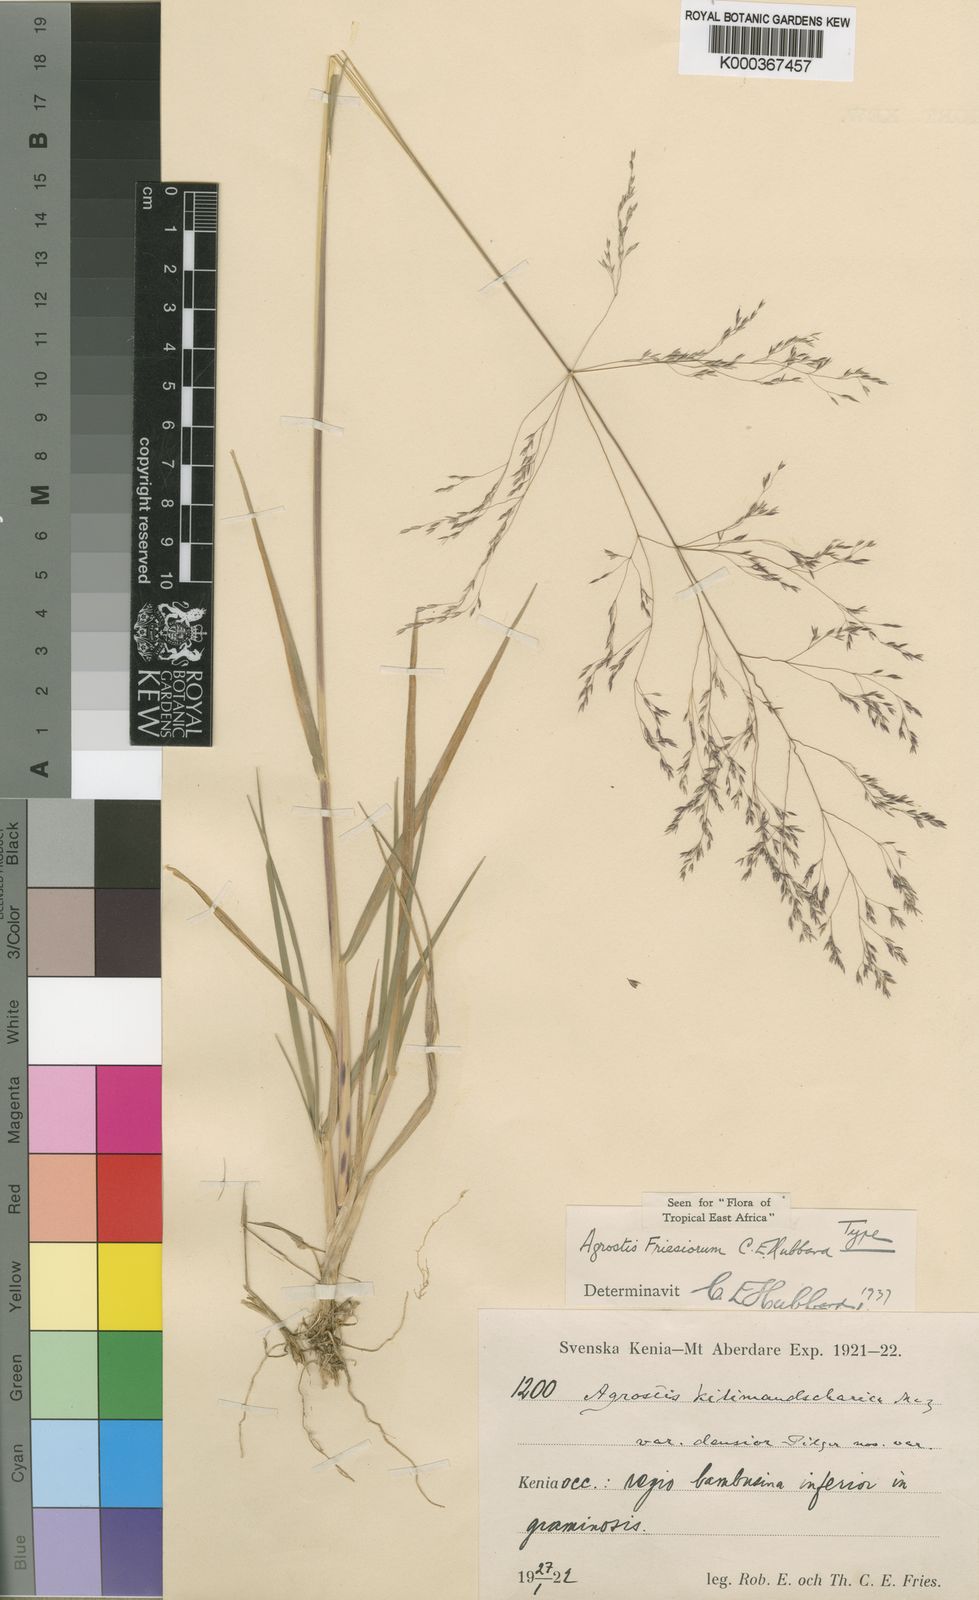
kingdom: Plantae
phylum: Tracheophyta
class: Liliopsida
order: Poales
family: Poaceae
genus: Agrostis
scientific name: Agrostis kilimandscharica
